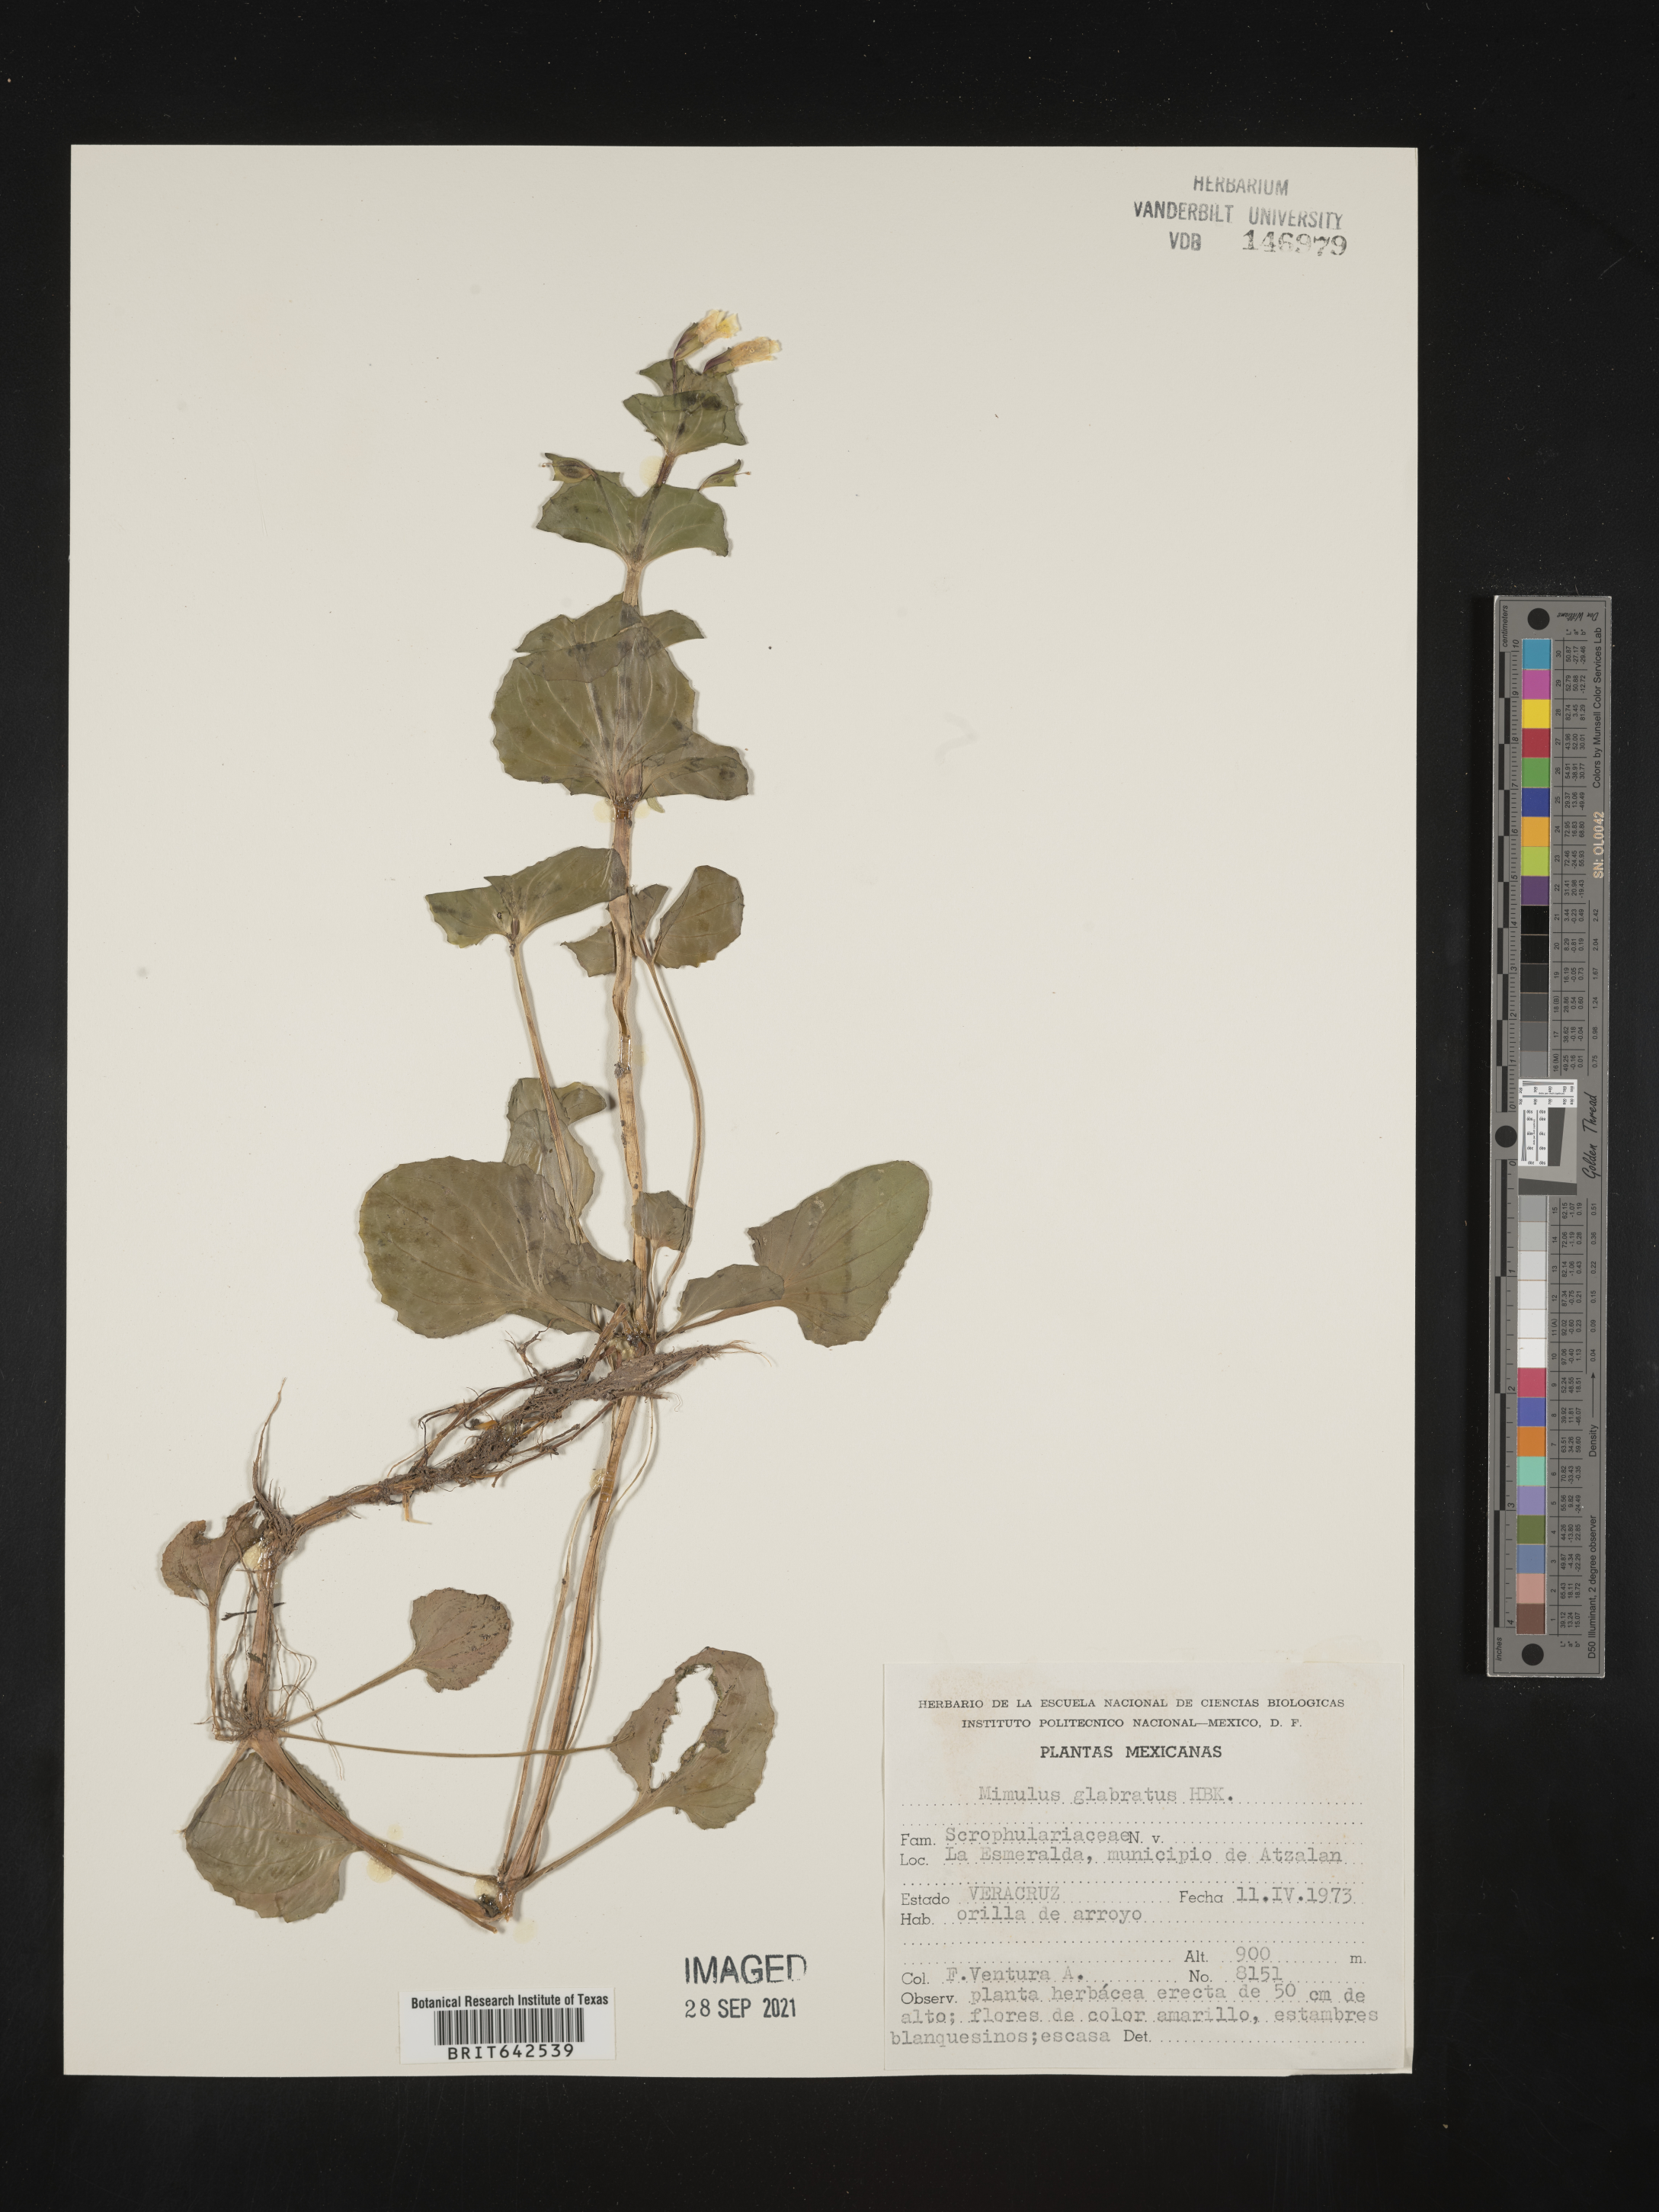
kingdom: Plantae
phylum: Tracheophyta
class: Magnoliopsida
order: Lamiales
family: Phrymaceae
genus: Mimulus
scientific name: Mimulus
